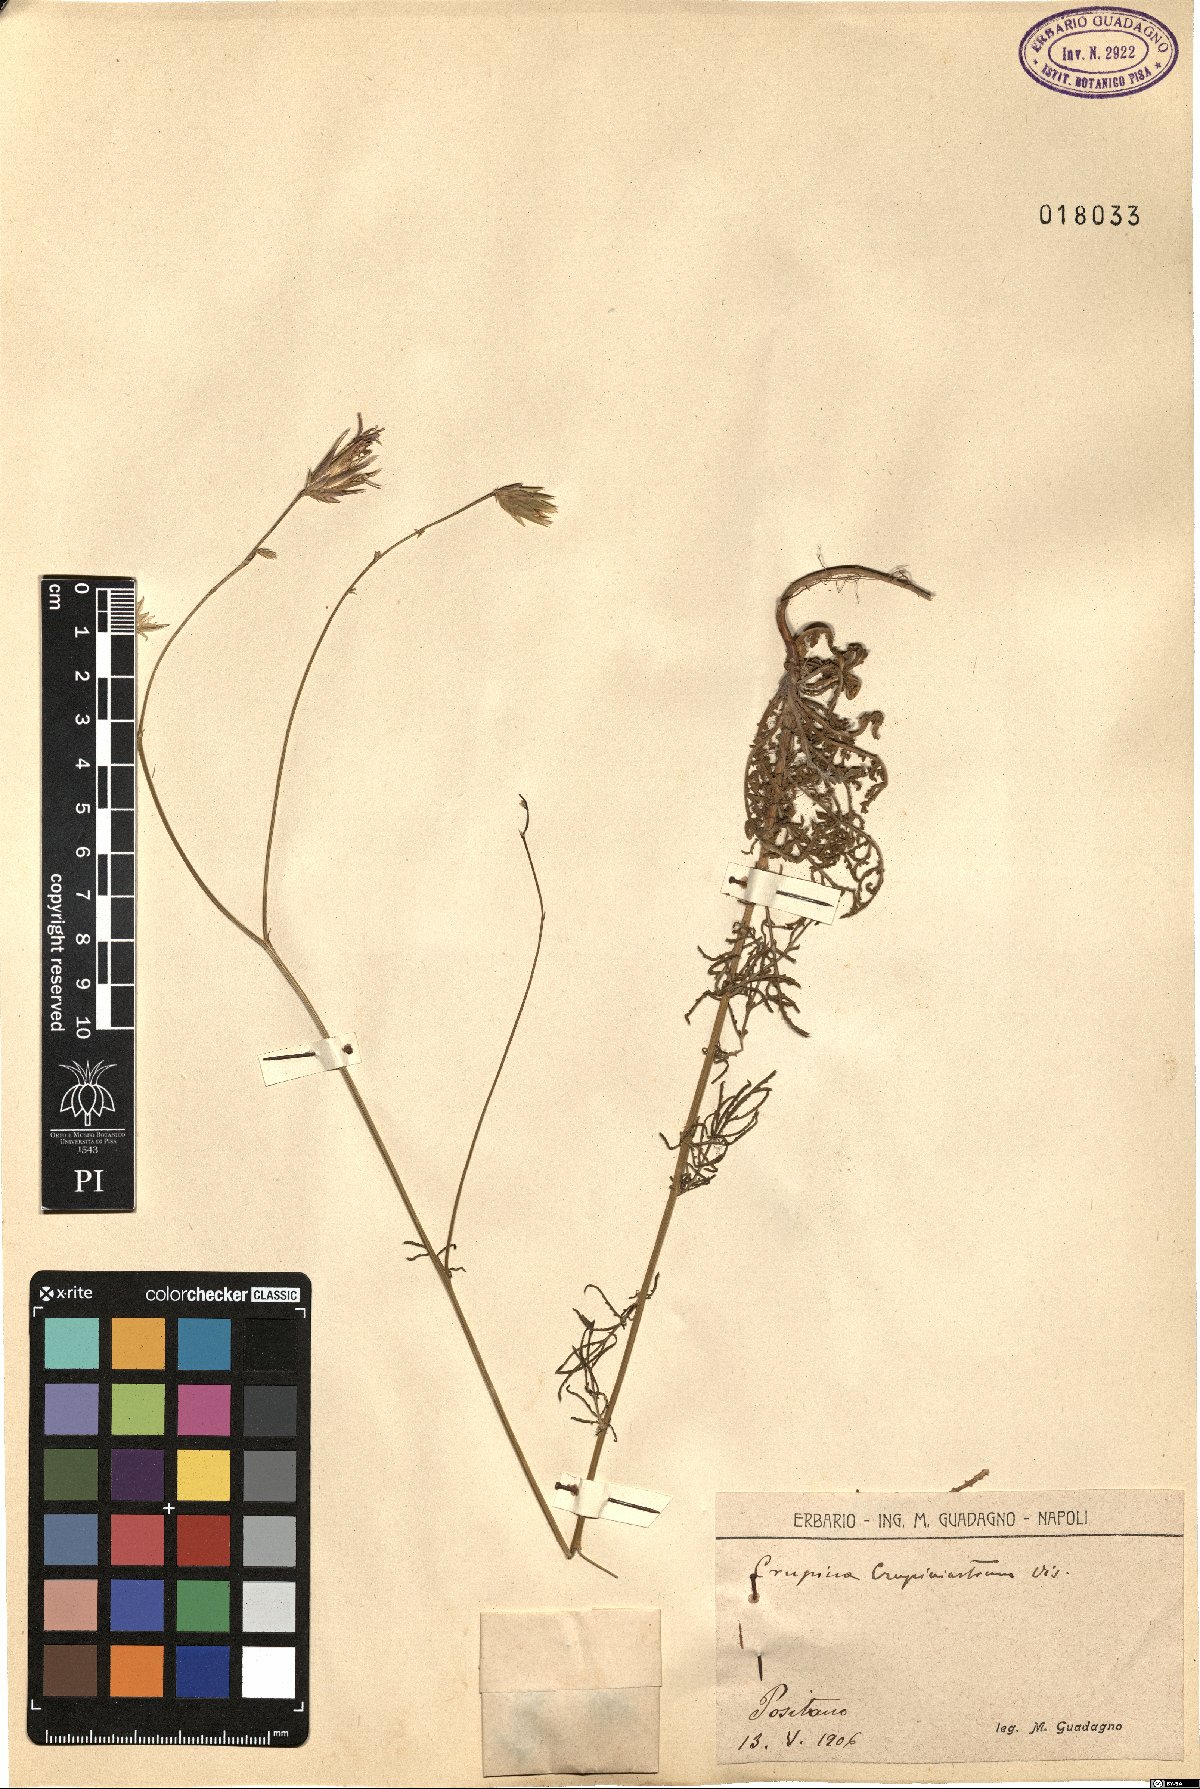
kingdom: Plantae
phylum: Tracheophyta
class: Magnoliopsida
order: Asterales
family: Asteraceae
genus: Crupina
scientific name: Crupina crupinastrum
